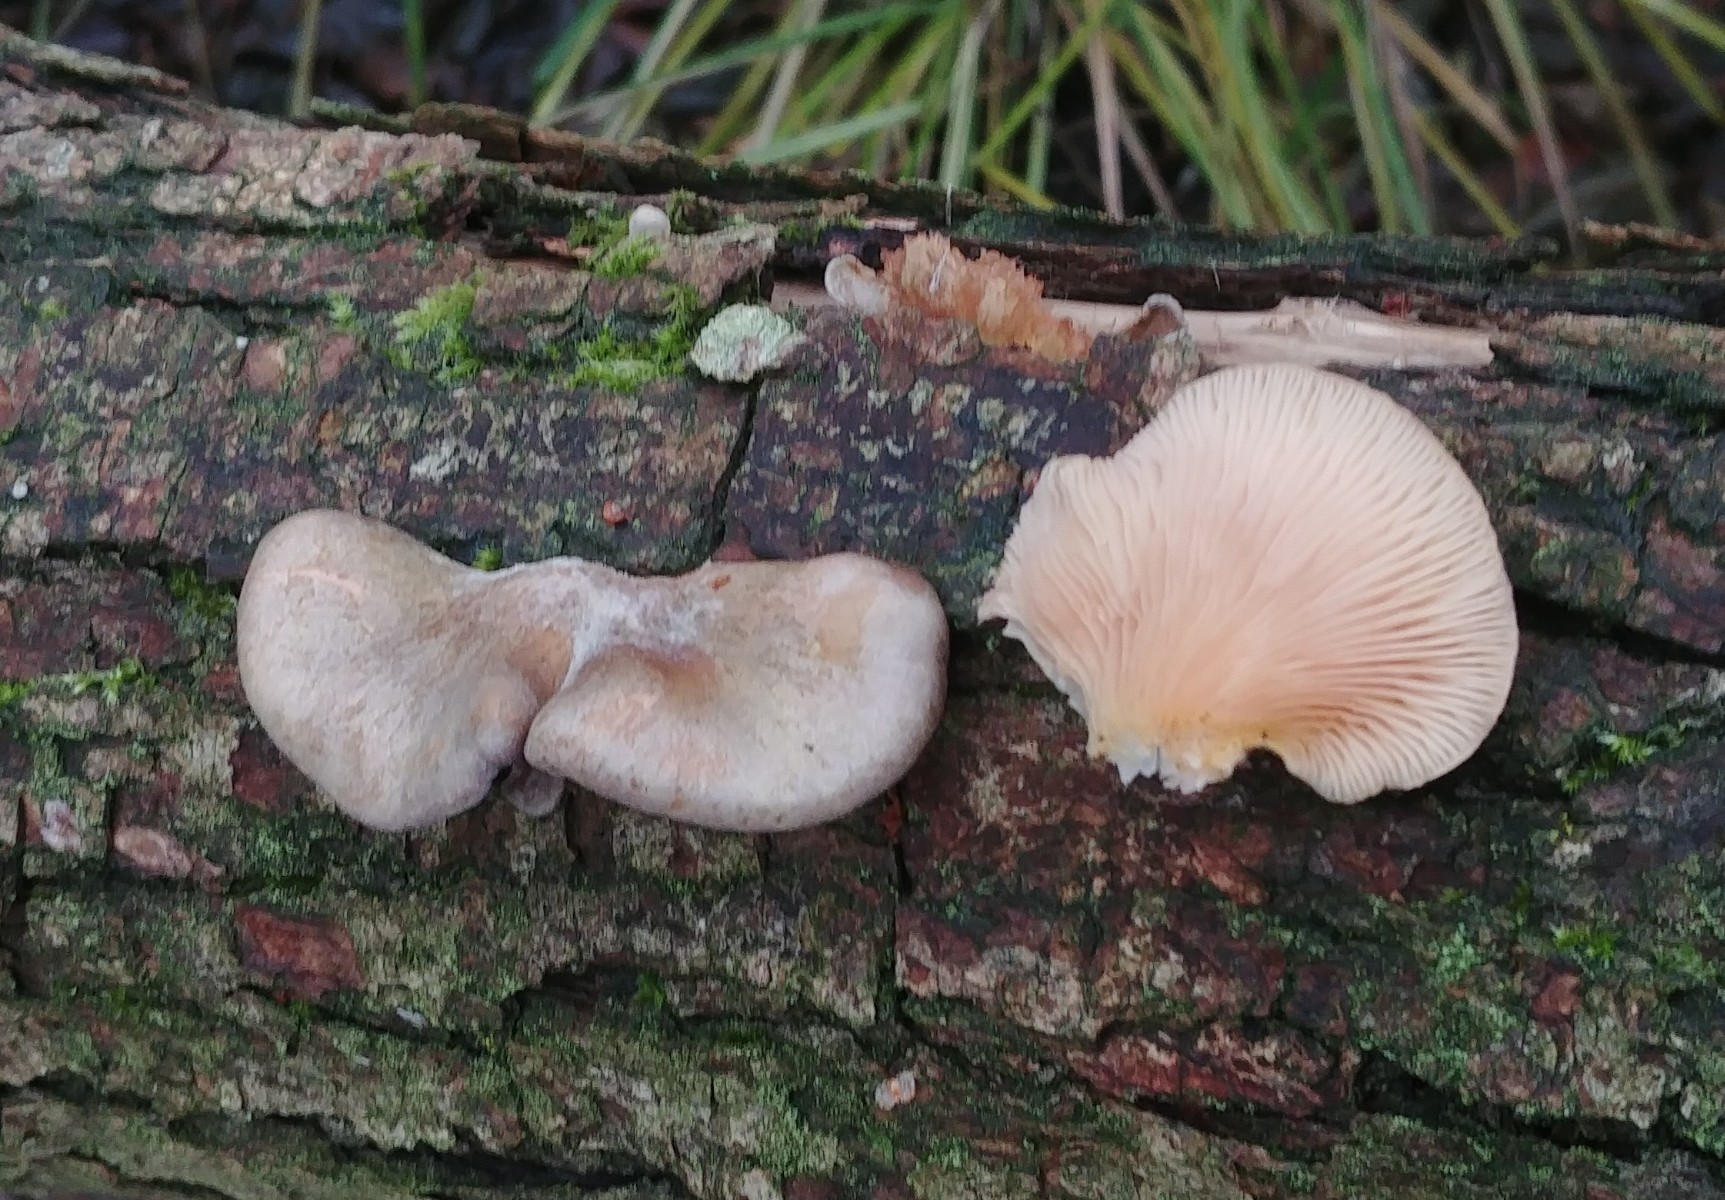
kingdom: Fungi
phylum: Basidiomycota
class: Agaricomycetes
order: Agaricales
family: Sarcomyxaceae
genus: Sarcomyxa
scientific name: Sarcomyxa serotina
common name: gummihat
